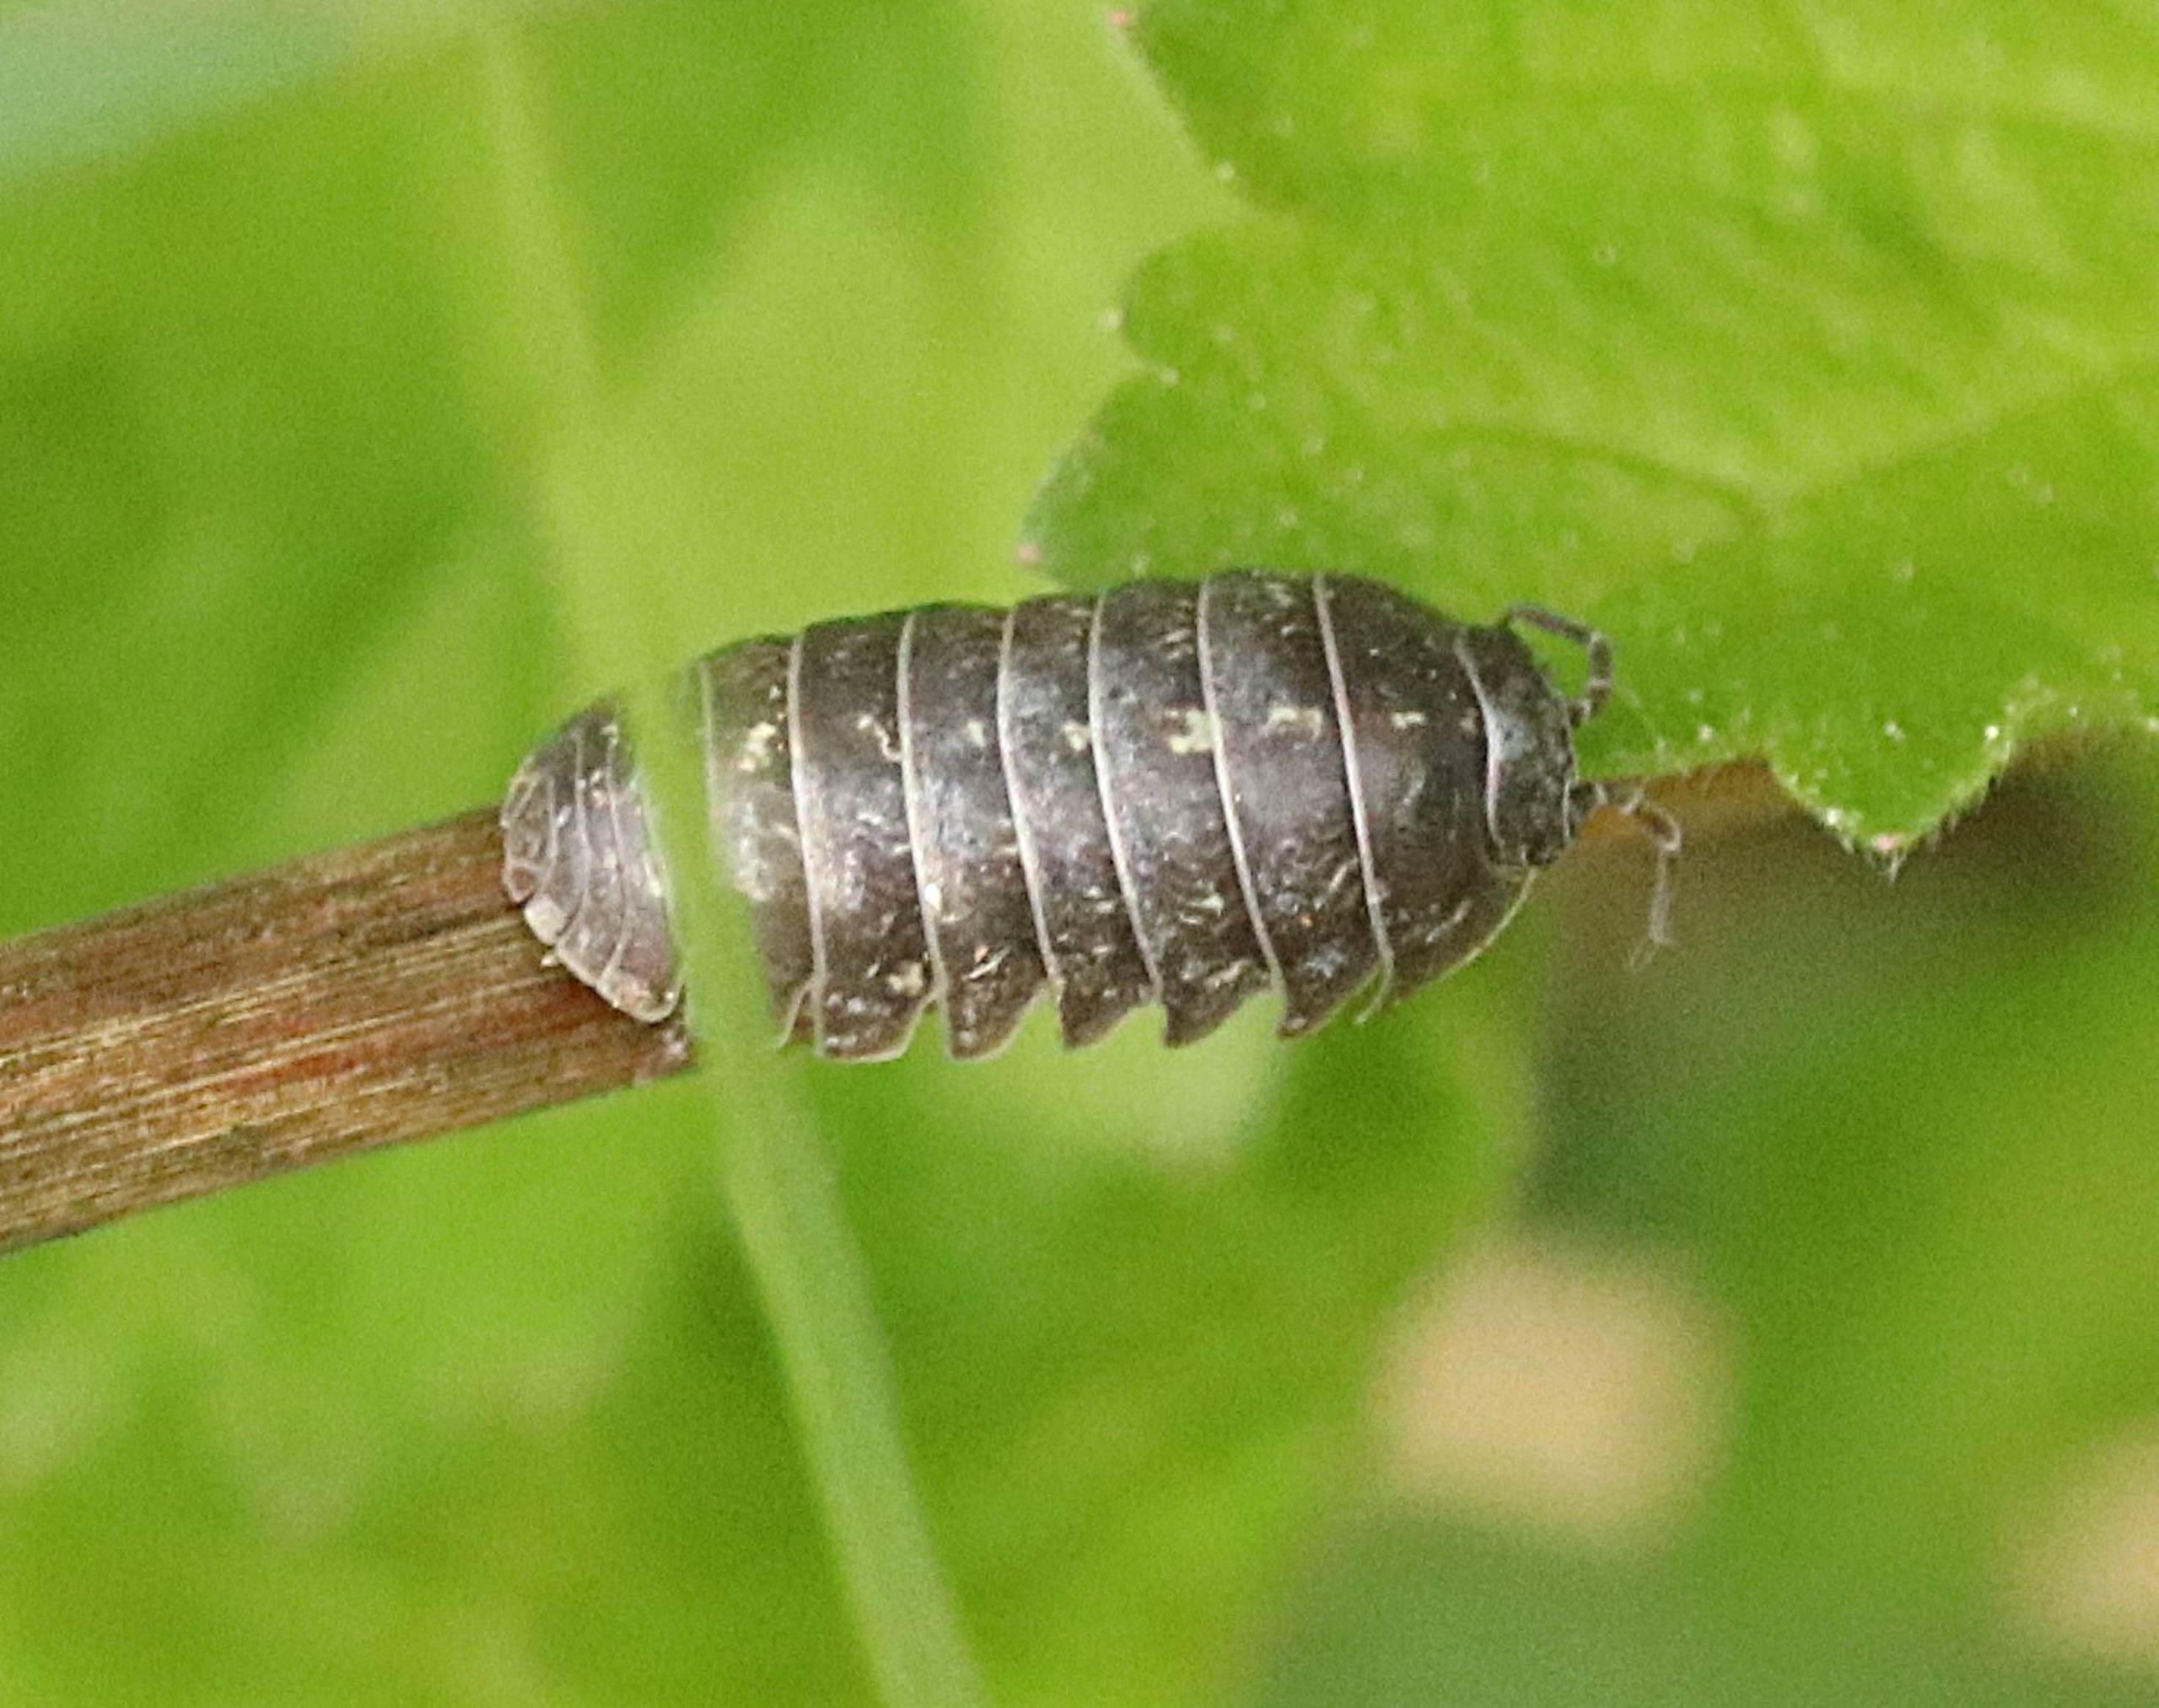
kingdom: Animalia
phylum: Arthropoda
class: Malacostraca
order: Isopoda
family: Armadillidiidae
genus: Armadillidium
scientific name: Armadillidium vulgare
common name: Almindelig kuglebænkebider
